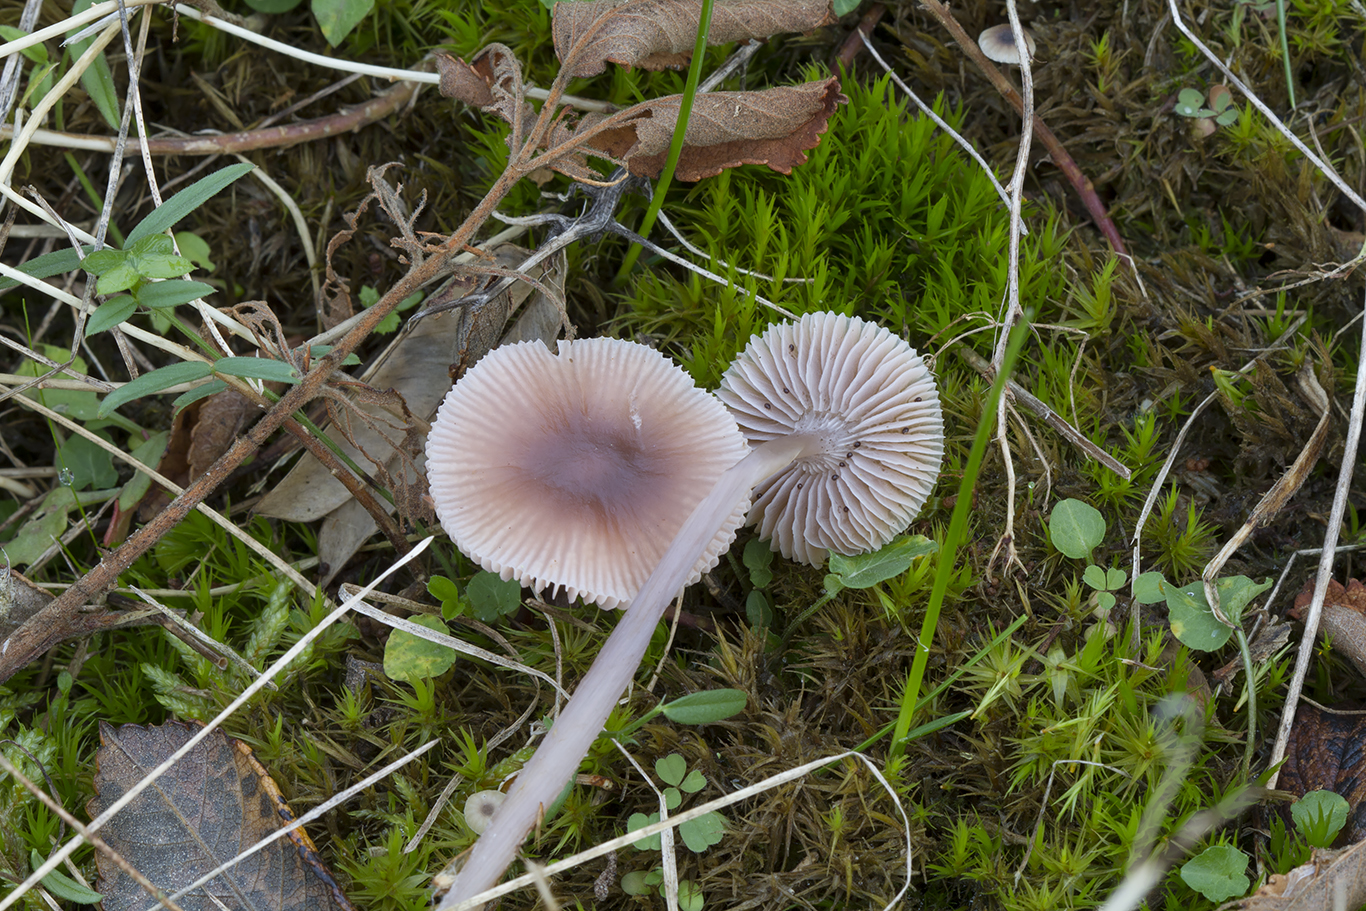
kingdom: Fungi
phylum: Basidiomycota
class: Agaricomycetes
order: Agaricales
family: Mycenaceae
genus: Mycena
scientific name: Mycena luteovariegata
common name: lillagul huesvamp
